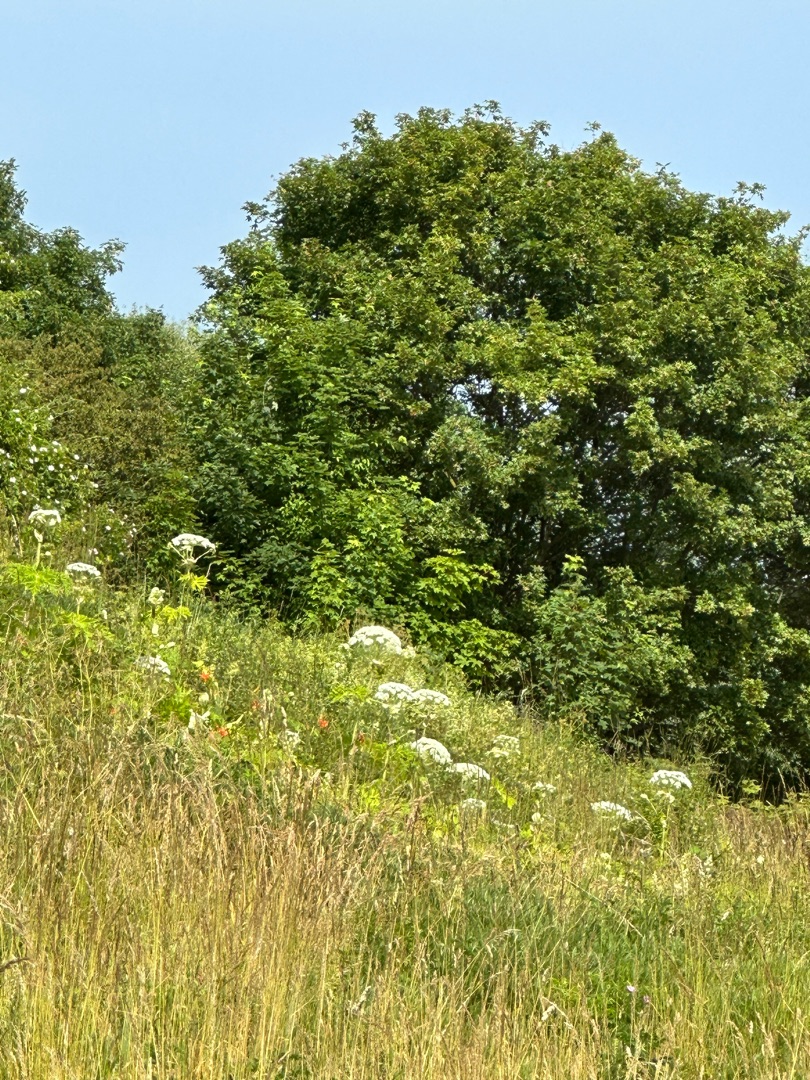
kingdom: Plantae
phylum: Tracheophyta
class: Magnoliopsida
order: Apiales
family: Apiaceae
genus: Heracleum
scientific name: Heracleum mantegazzianum
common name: Kæmpe-bjørneklo
